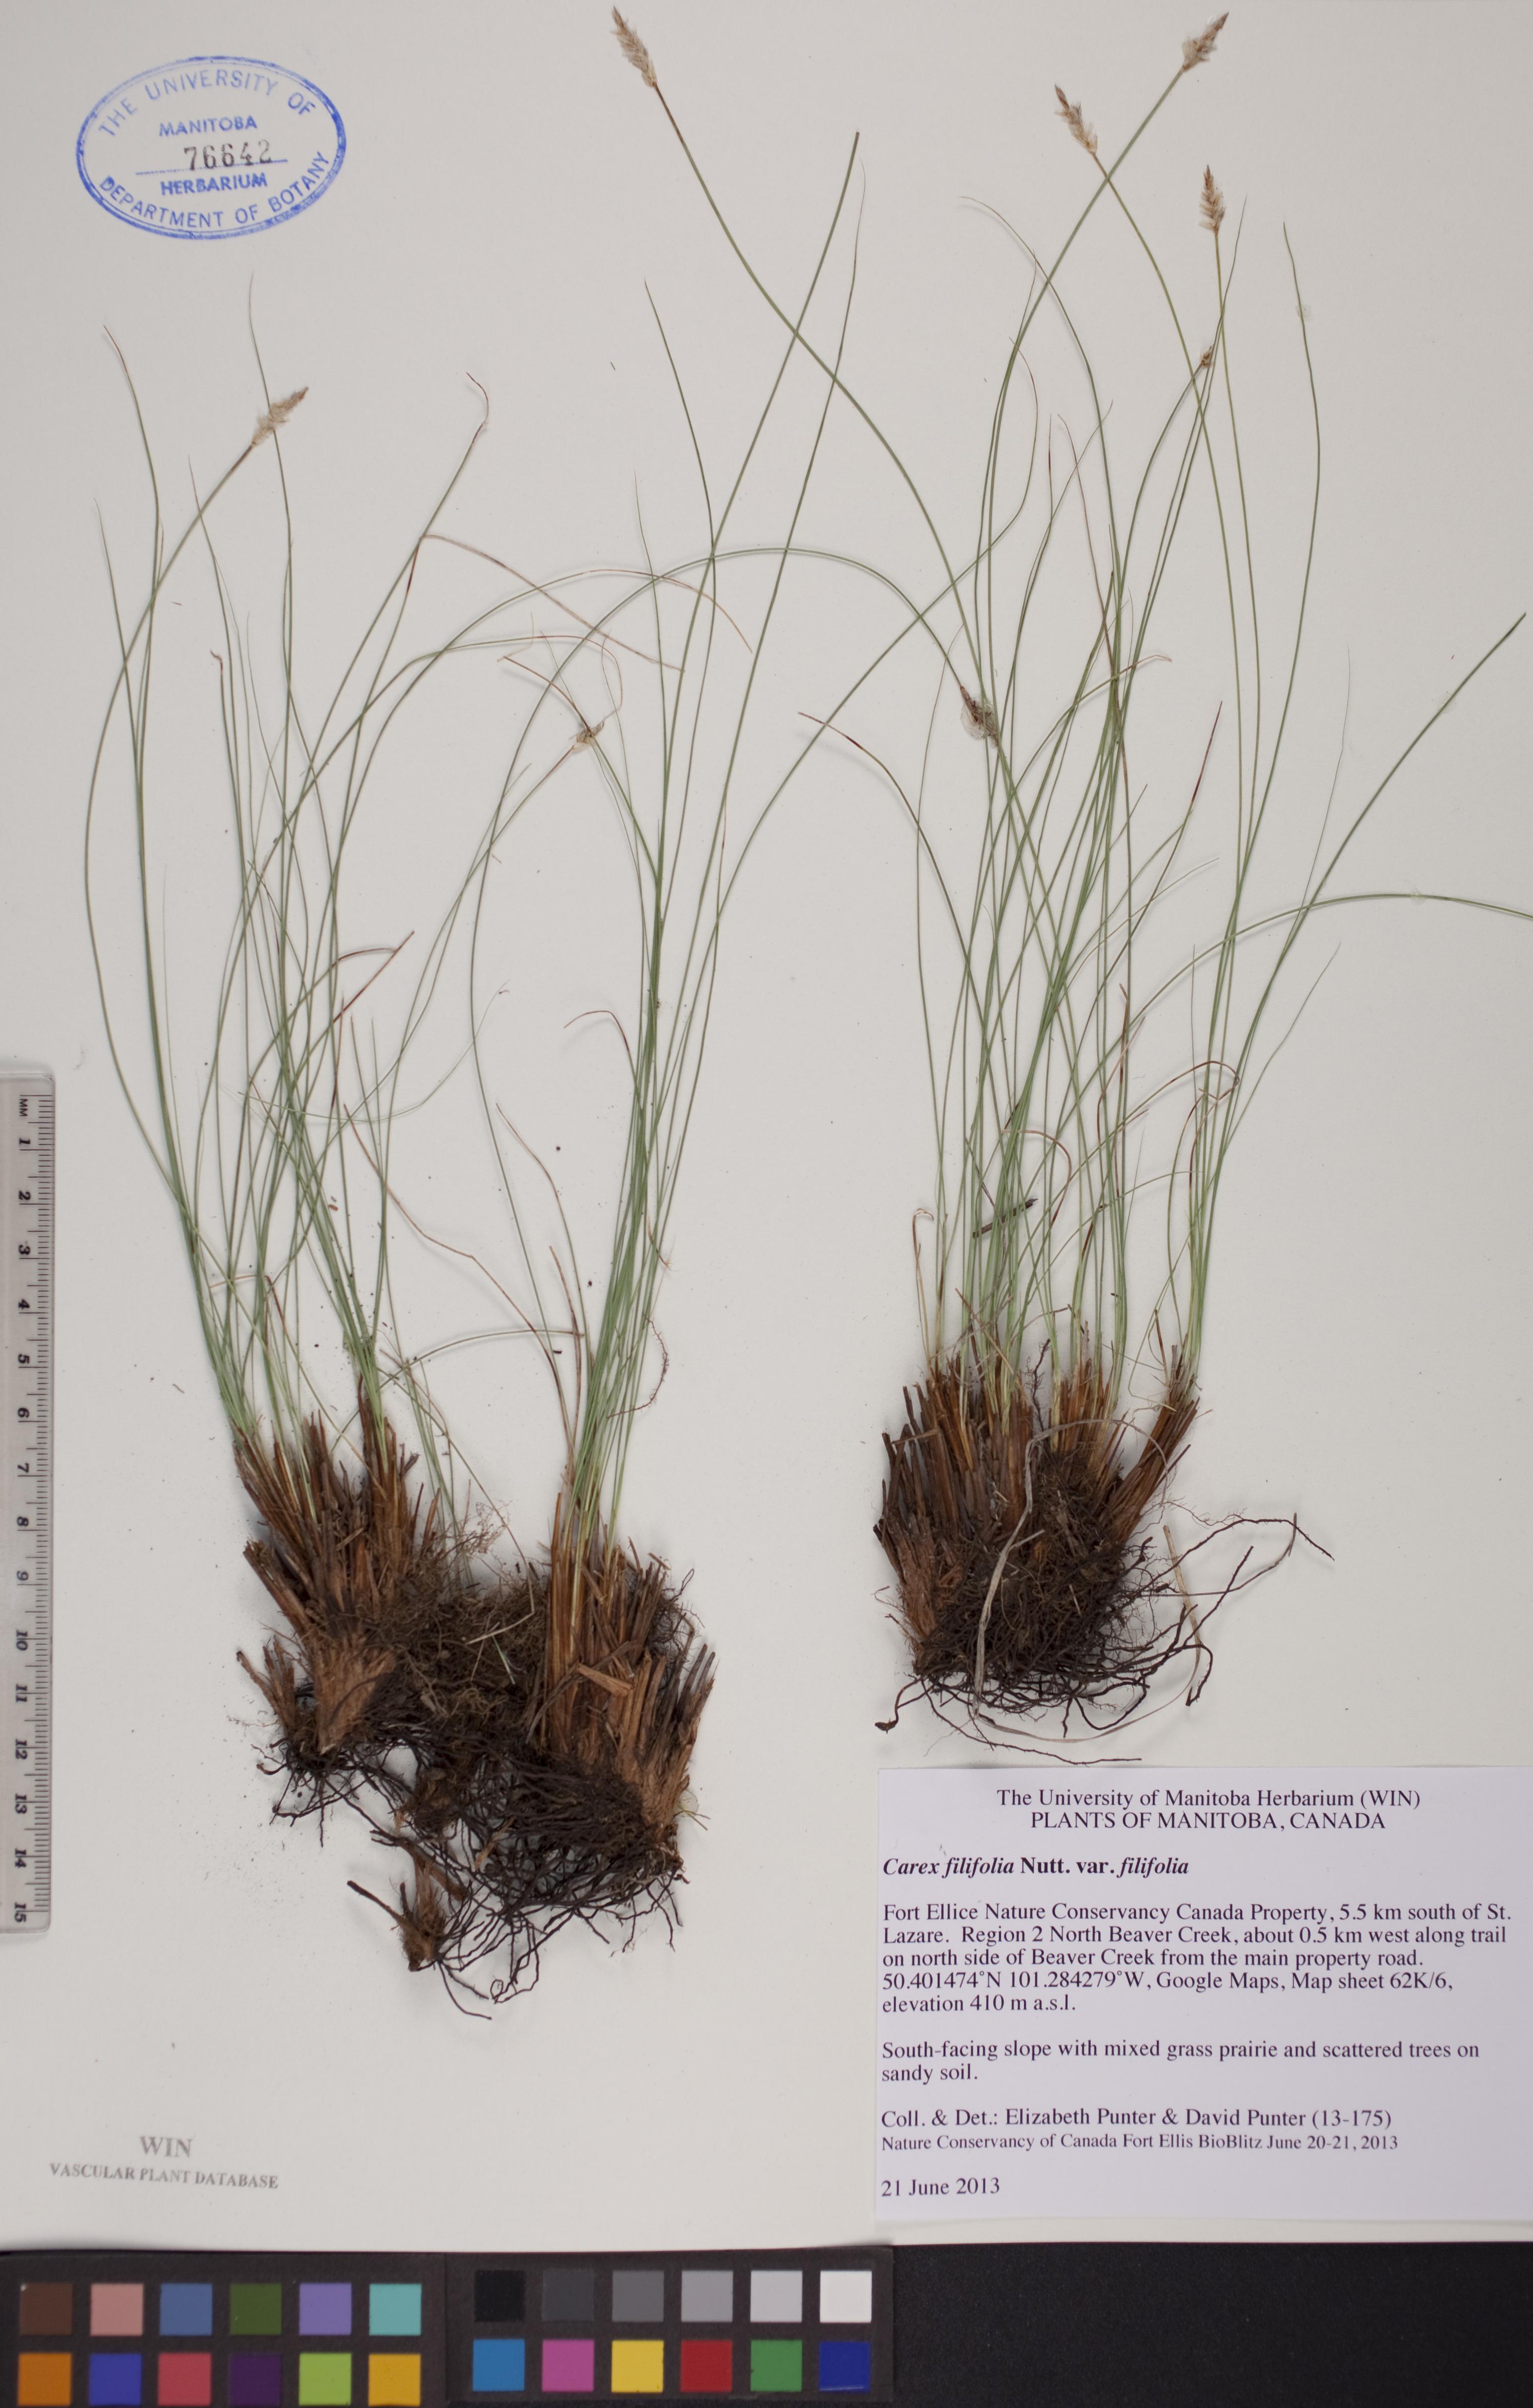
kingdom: Plantae
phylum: Tracheophyta
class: Liliopsida
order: Poales
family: Cyperaceae
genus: Carex
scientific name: Carex filifolia
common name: Threadleaf sedge
